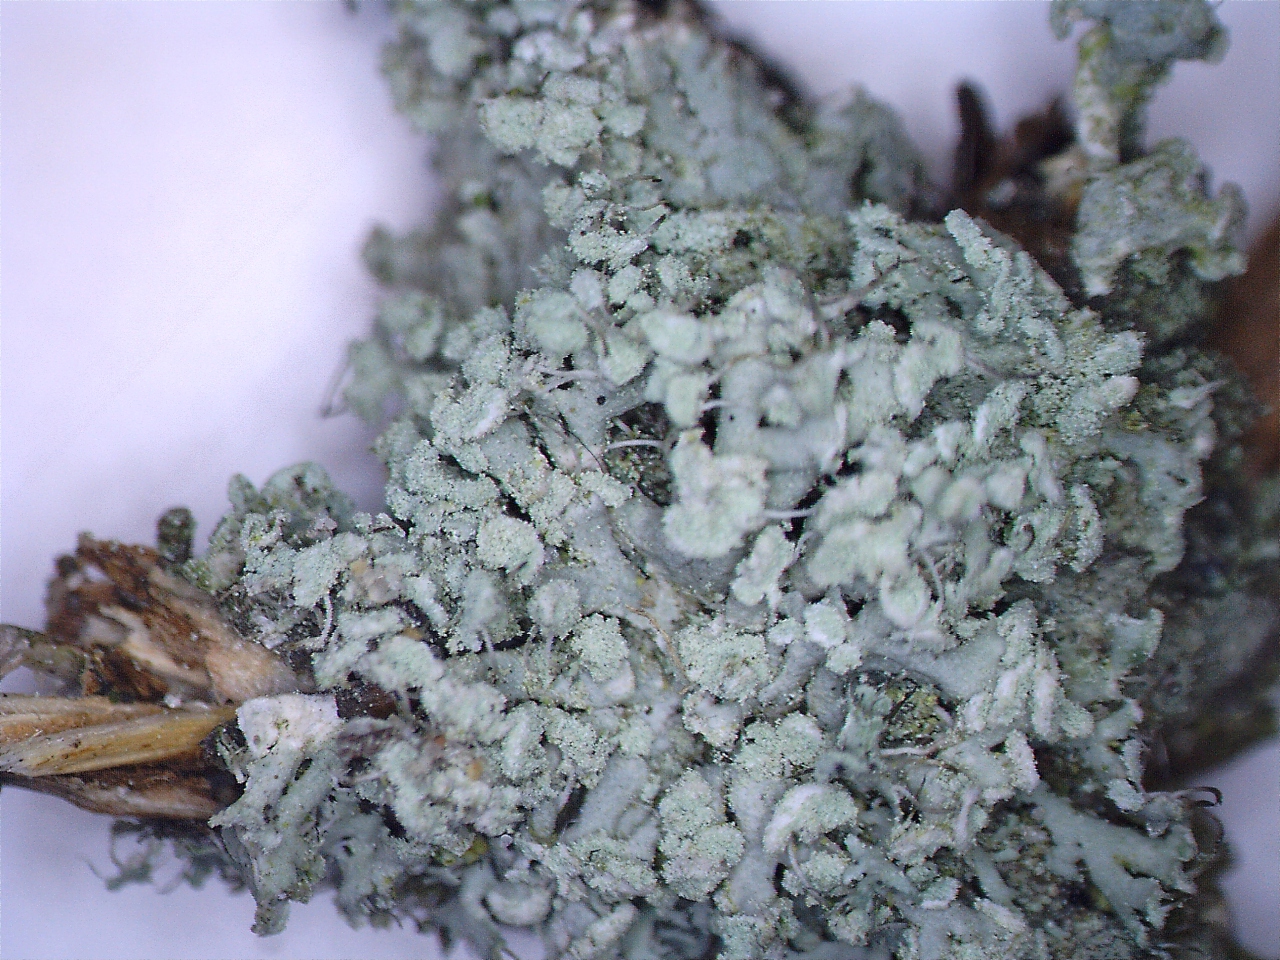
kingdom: Fungi
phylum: Ascomycota
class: Lecanoromycetes
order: Caliciales
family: Physciaceae
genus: Physcia
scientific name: Physcia tenella
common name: spæd rosetlav
